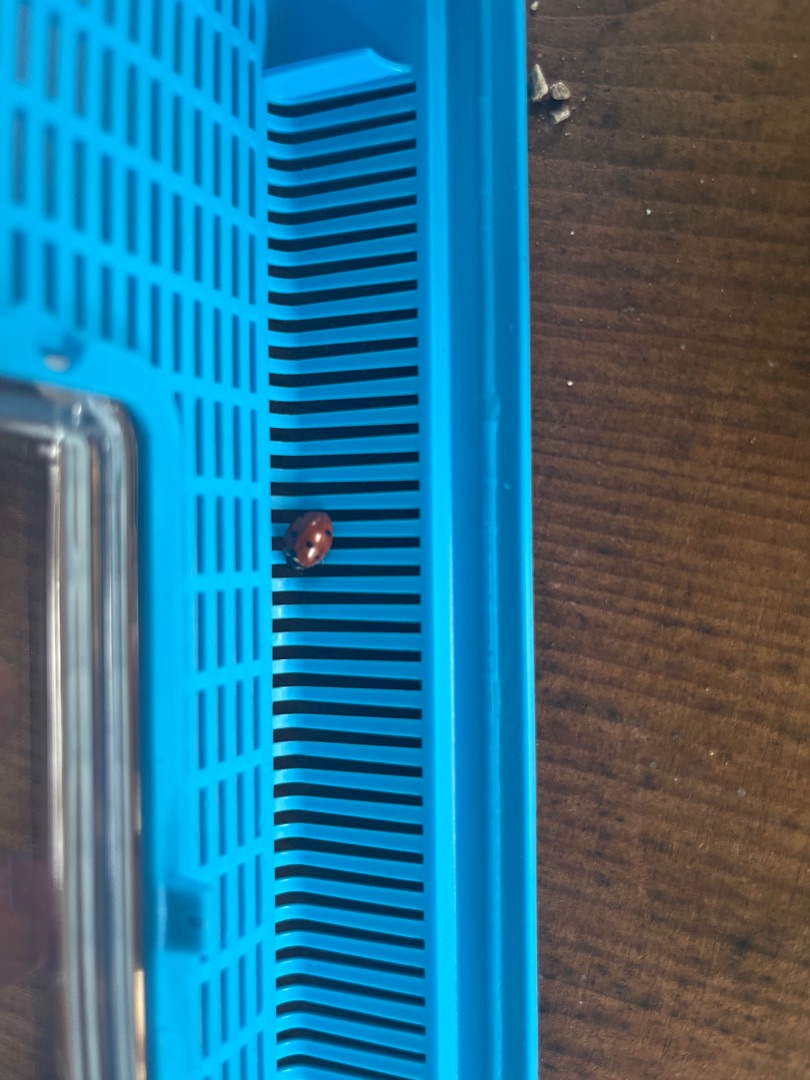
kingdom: Animalia
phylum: Arthropoda
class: Insecta
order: Coleoptera
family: Coccinellidae
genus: Coccinella
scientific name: Coccinella septempunctata
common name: Syvplettet mariehøne
